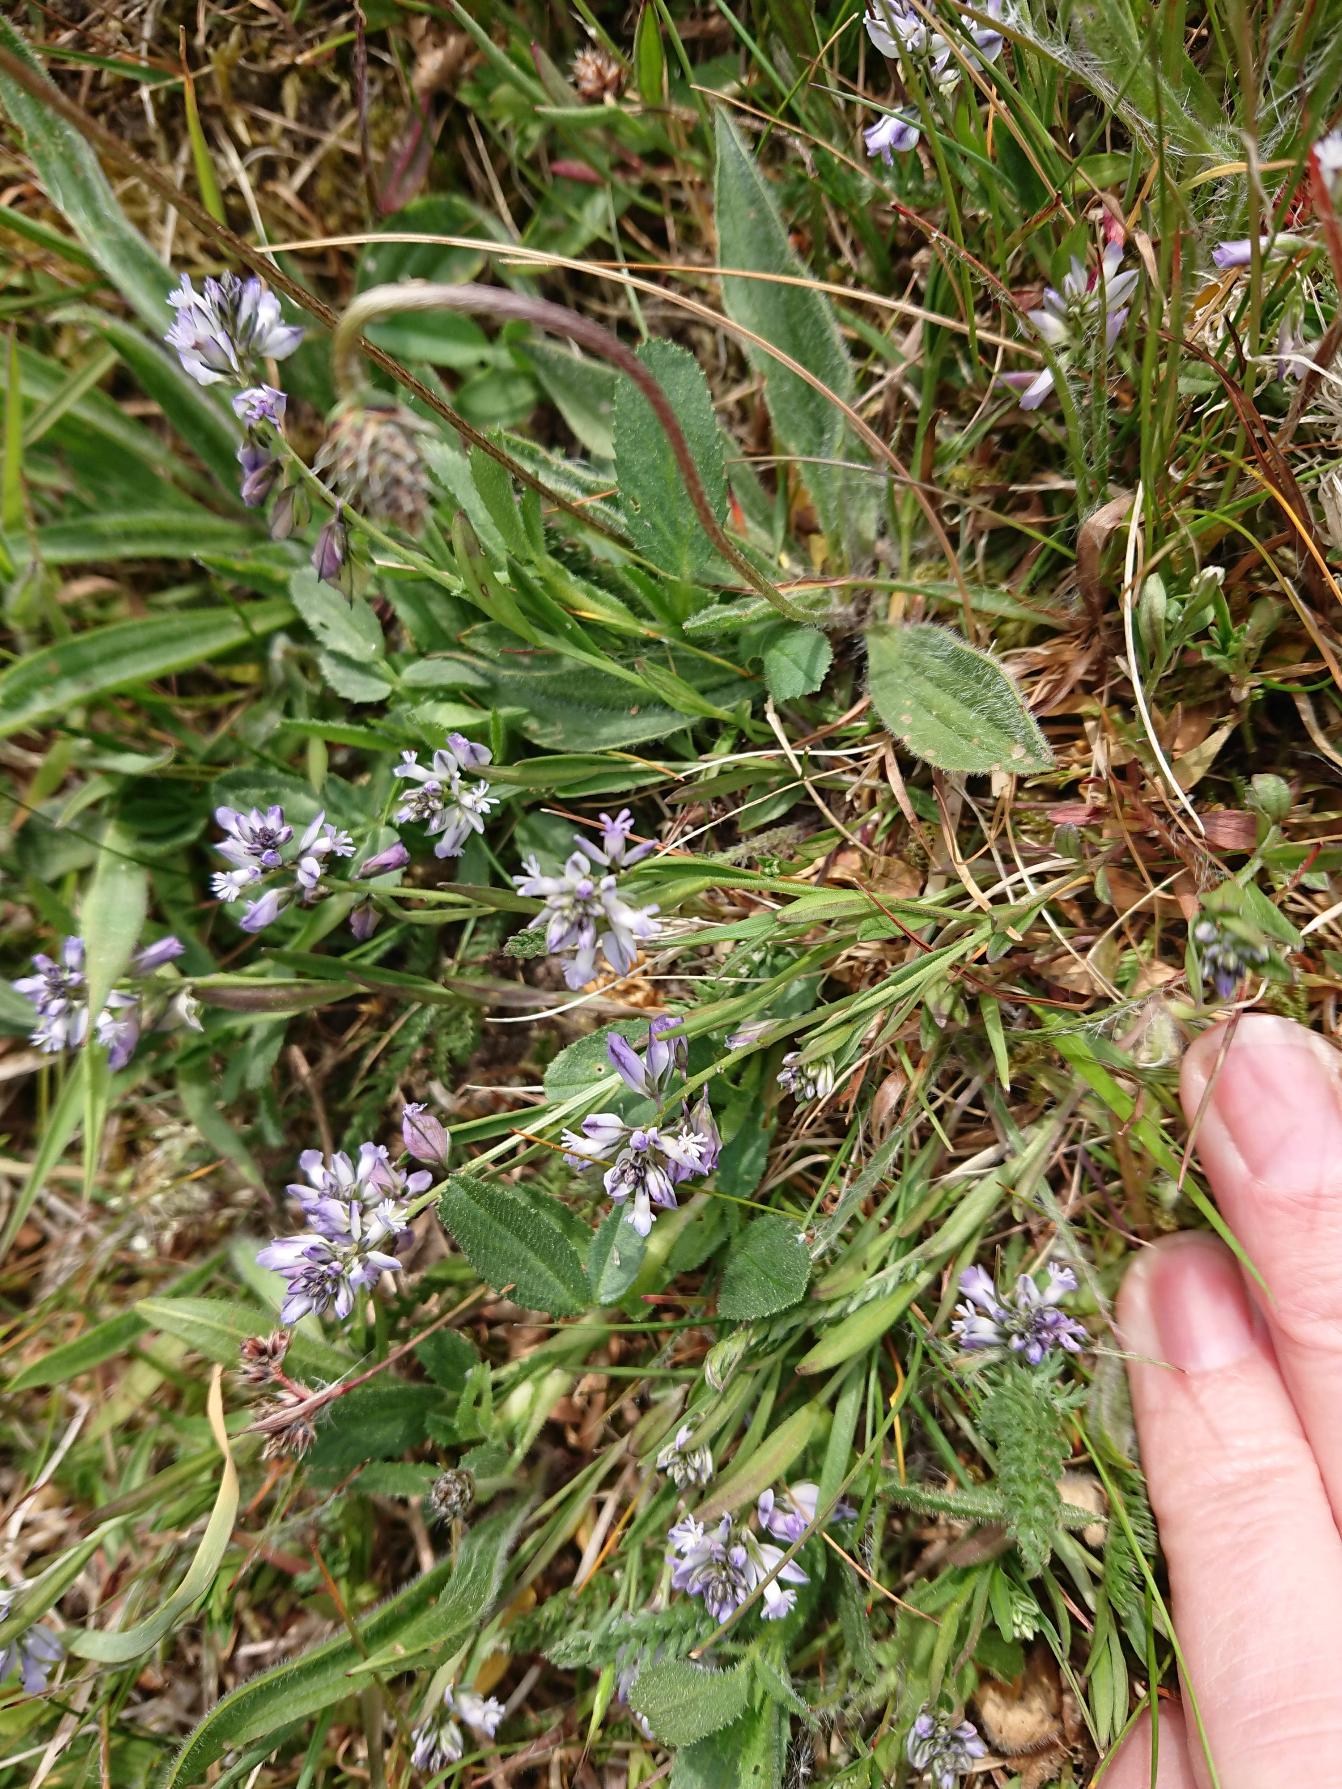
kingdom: Plantae
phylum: Tracheophyta
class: Magnoliopsida
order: Fabales
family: Polygalaceae
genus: Polygala
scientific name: Polygala vulgaris
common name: Almindelig mælkeurt
